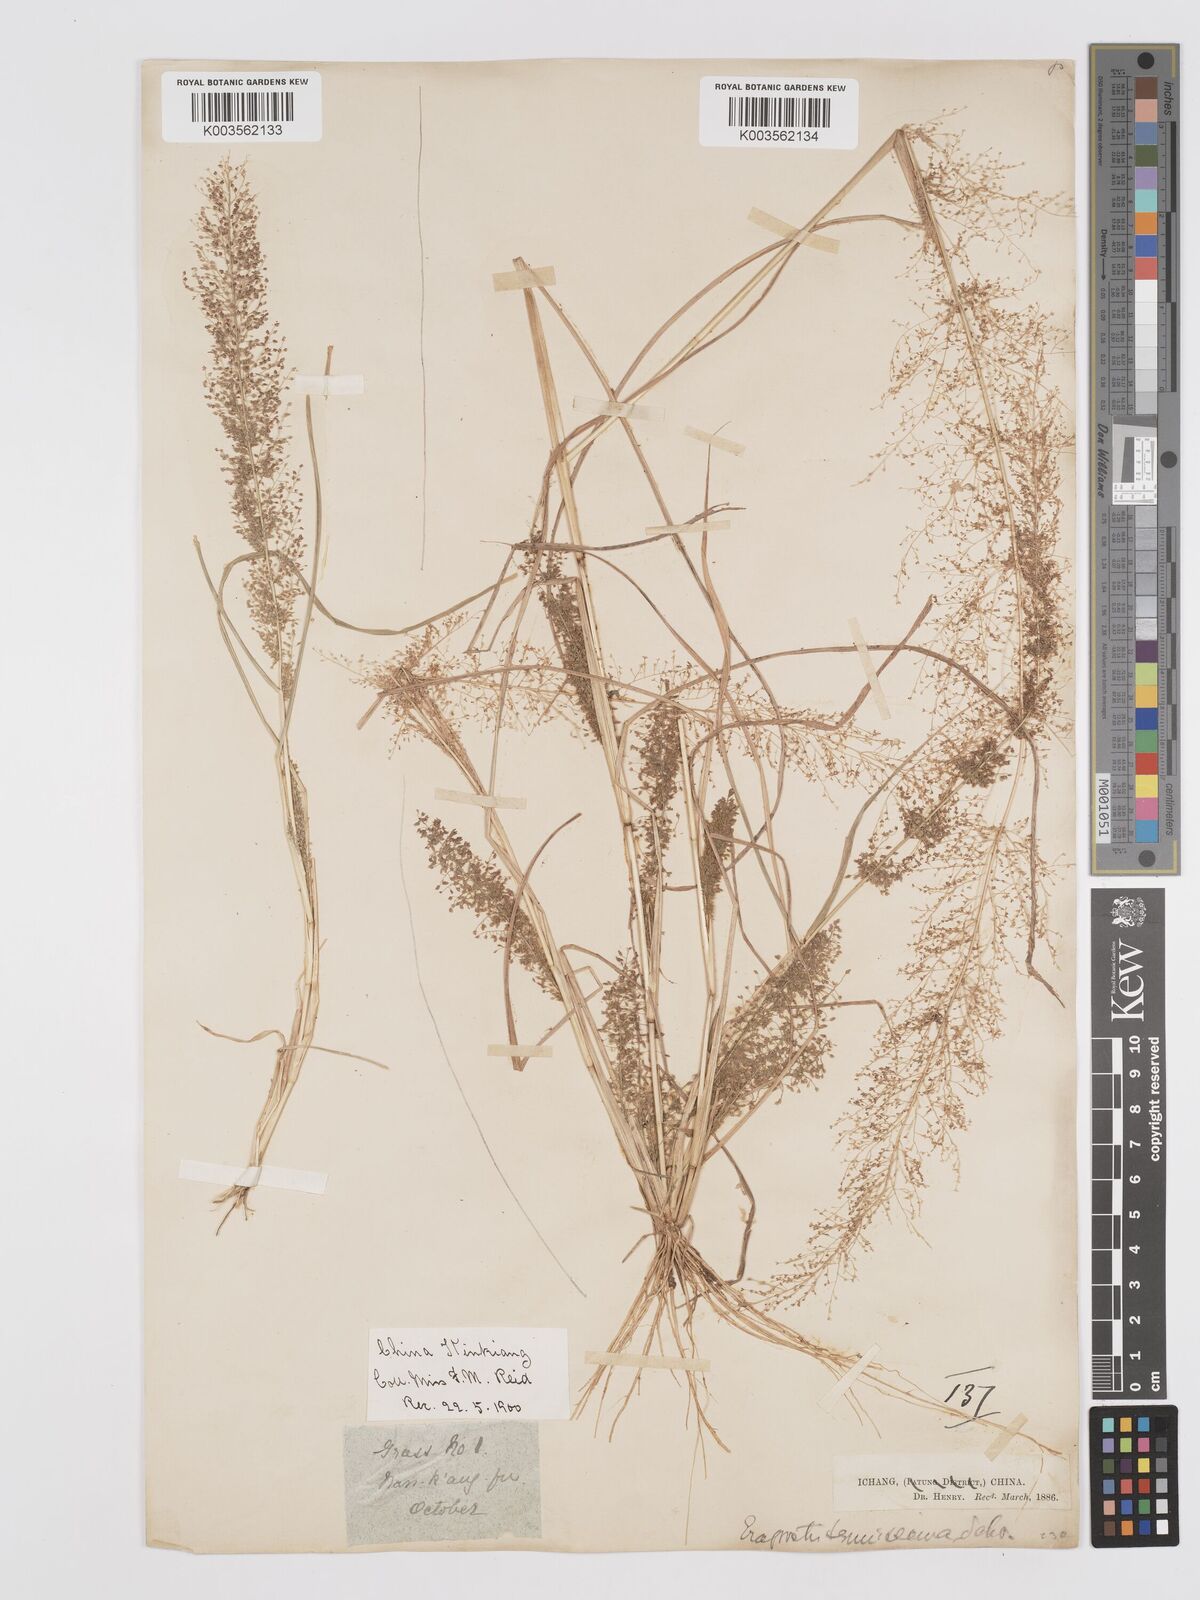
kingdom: Plantae
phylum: Tracheophyta
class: Liliopsida
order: Poales
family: Poaceae
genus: Eragrostis
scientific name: Eragrostis japonica
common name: Pond lovegrass
